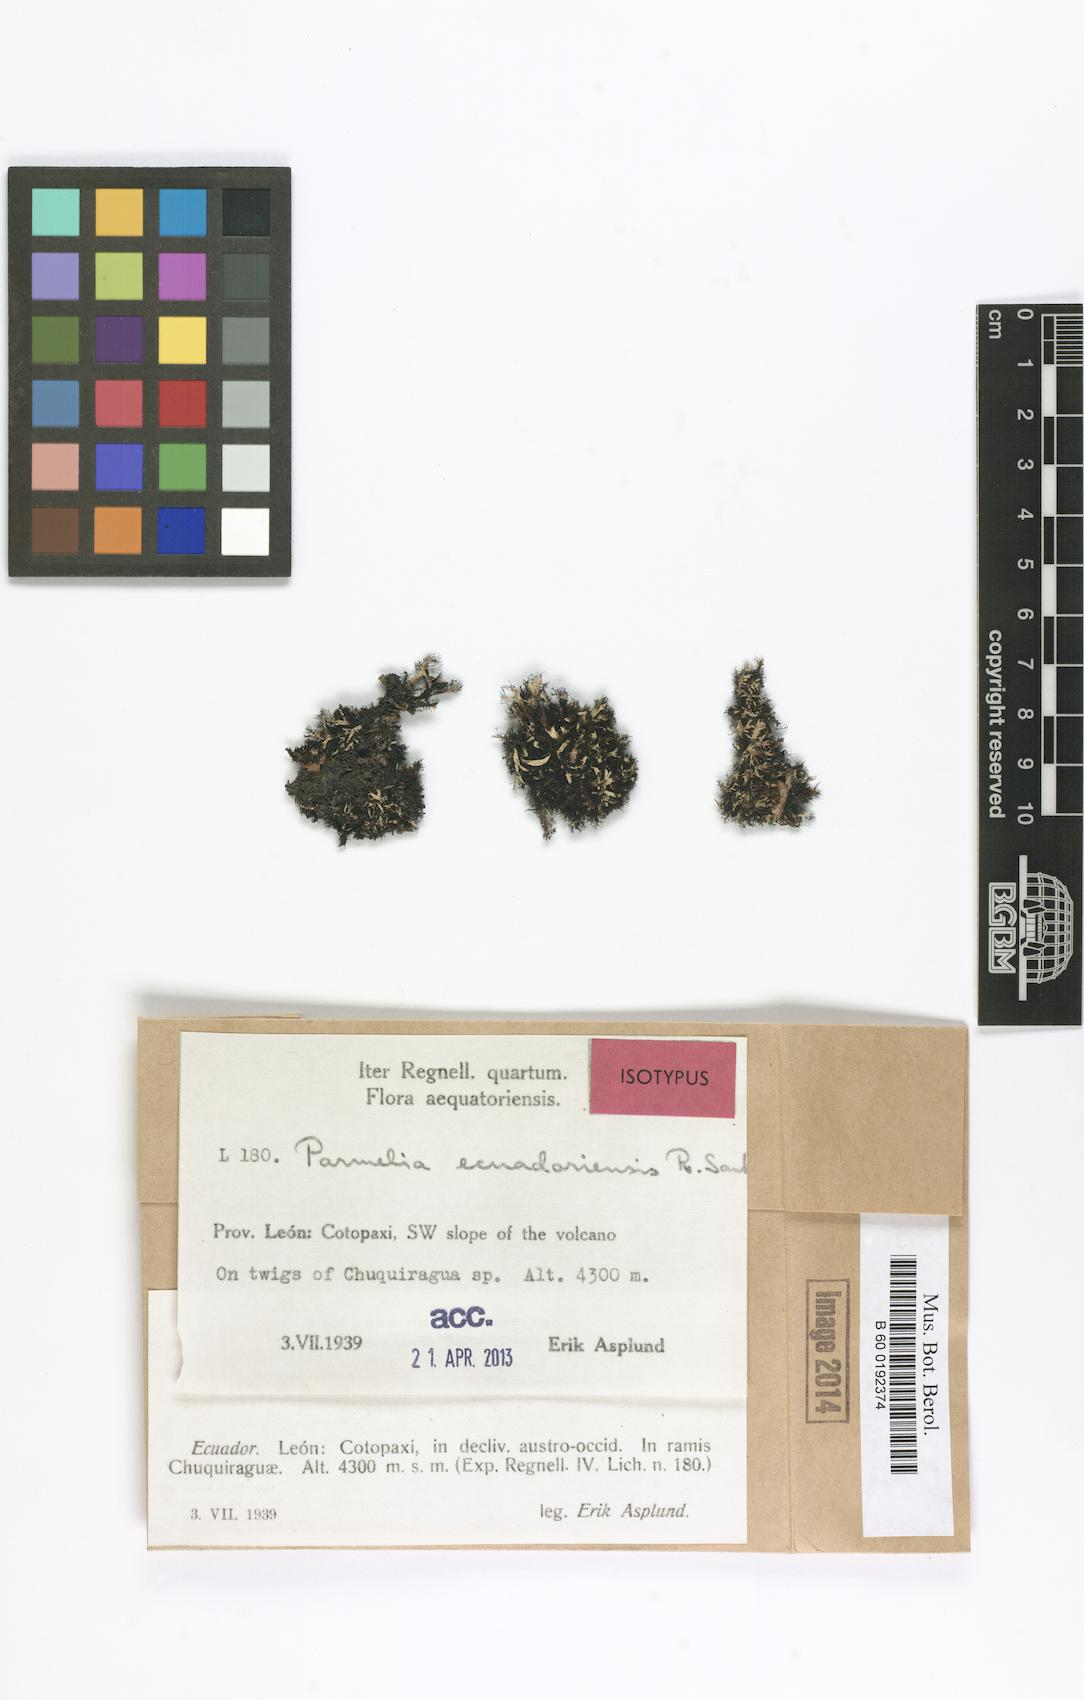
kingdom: Fungi
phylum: Ascomycota
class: Lecanoromycetes
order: Lecanorales
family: Parmeliaceae
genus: Parmelia
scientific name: Parmelia ecuadoriensis
